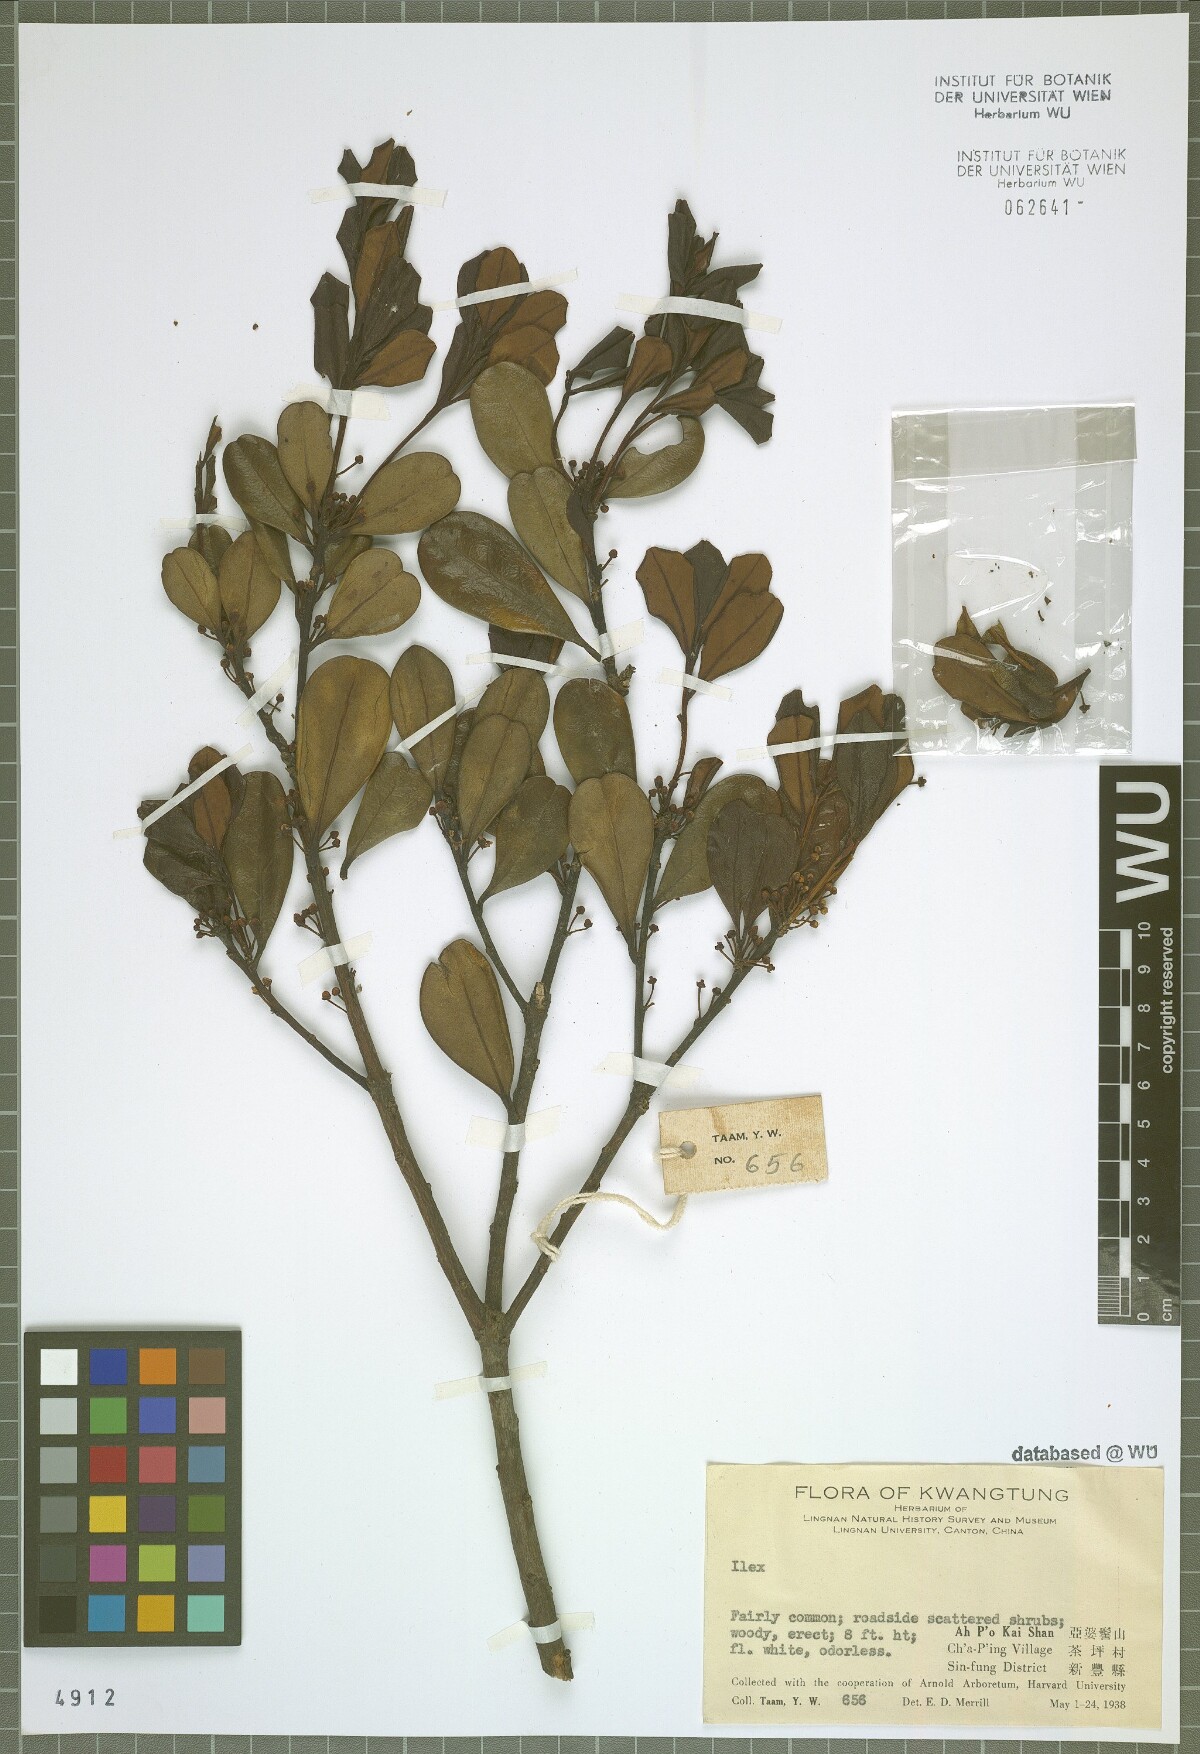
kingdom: Plantae
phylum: Tracheophyta
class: Magnoliopsida
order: Aquifoliales
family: Aquifoliaceae
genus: Ilex
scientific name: Ilex
